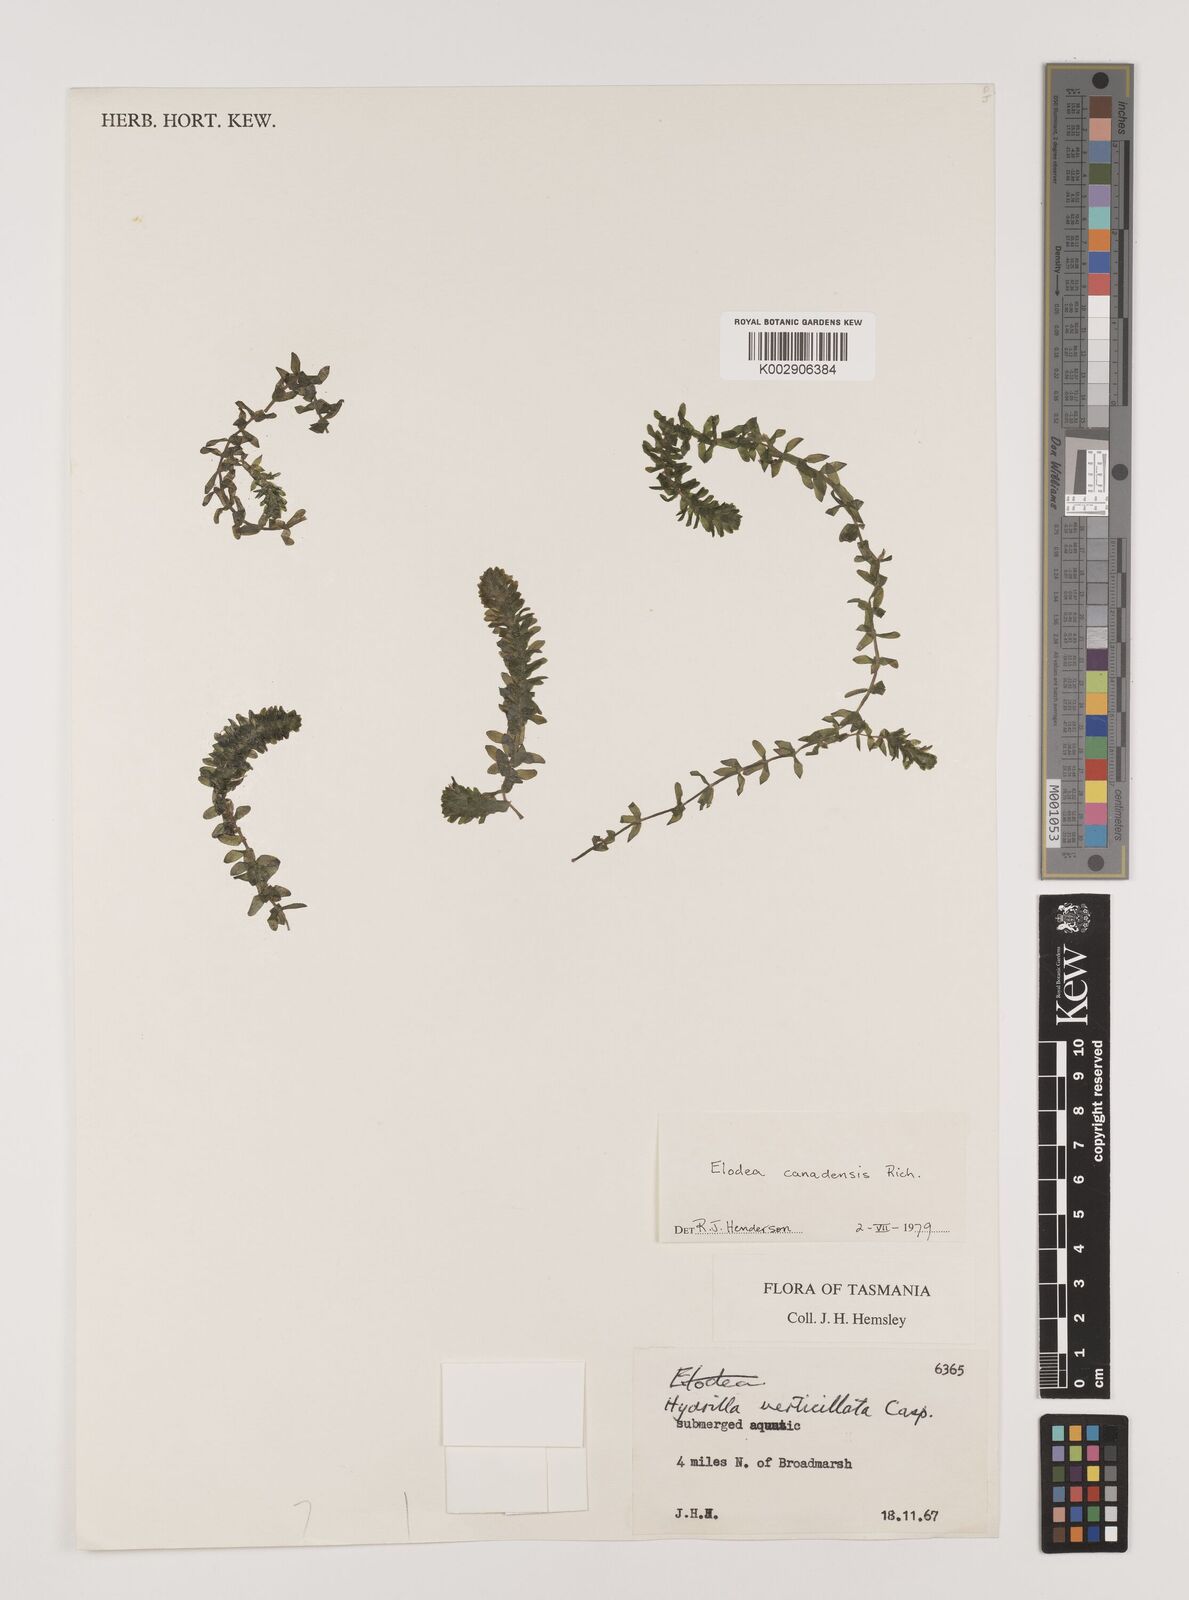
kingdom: Plantae
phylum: Tracheophyta
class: Liliopsida
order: Alismatales
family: Hydrocharitaceae
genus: Elodea
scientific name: Elodea canadensis
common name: Canadian waterweed
